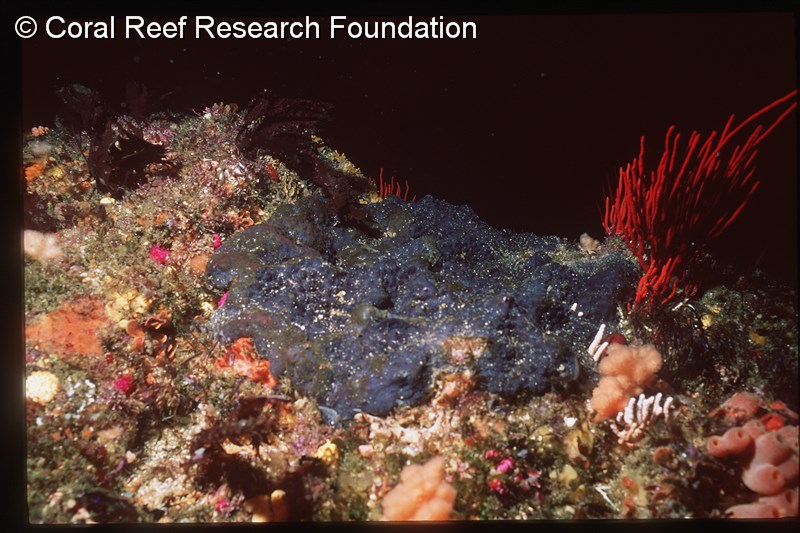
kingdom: Animalia
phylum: Chordata
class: Ascidiacea
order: Aplousobranchia
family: Polycitoridae
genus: Eudistoma
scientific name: Eudistoma bituminis
